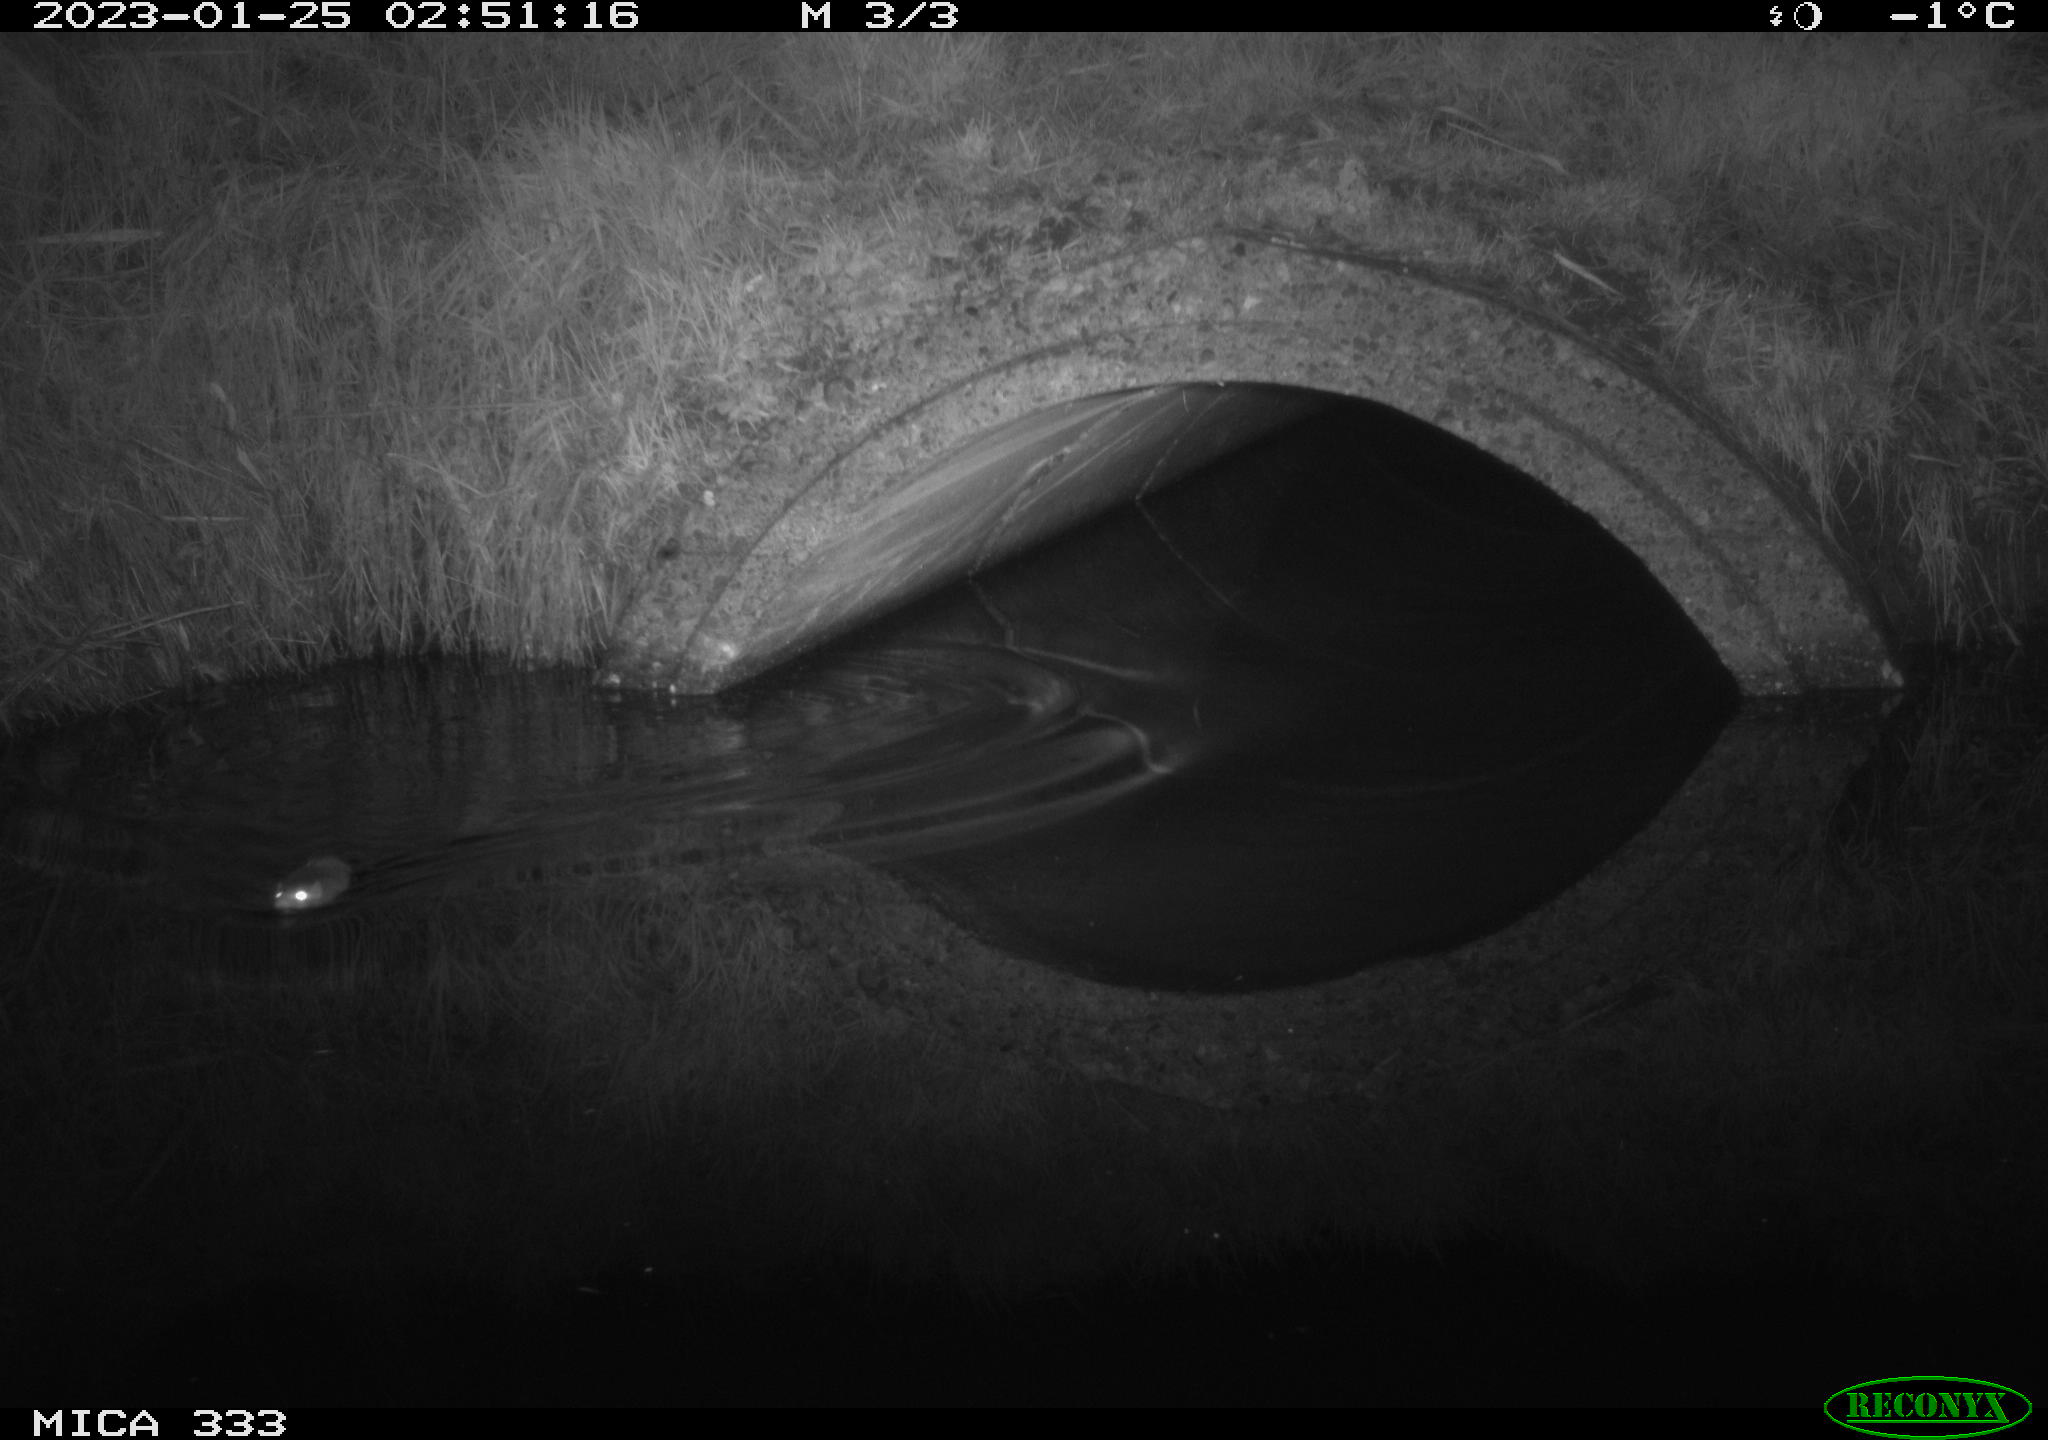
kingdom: Animalia
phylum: Chordata
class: Mammalia
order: Rodentia
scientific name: Rodentia
